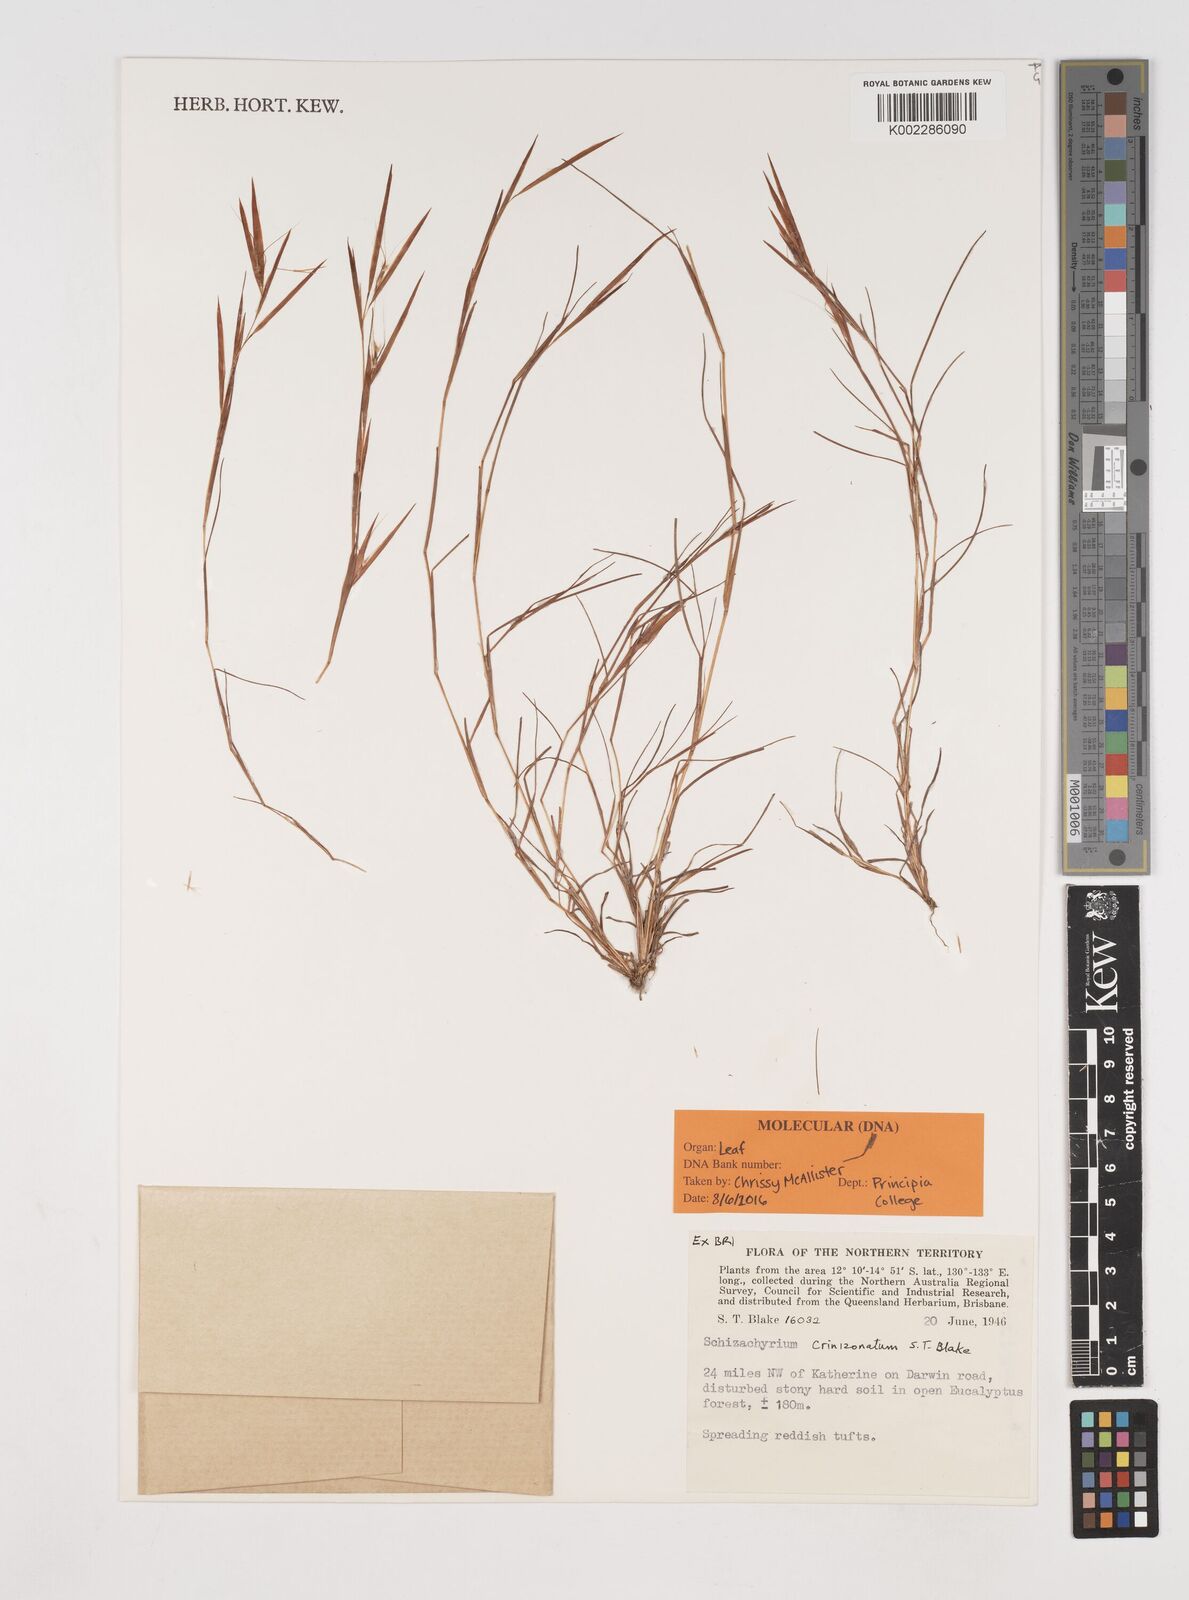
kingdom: Plantae
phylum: Tracheophyta
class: Liliopsida
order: Poales
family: Poaceae
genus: Schizachyrium
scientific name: Schizachyrium crinizonatum
